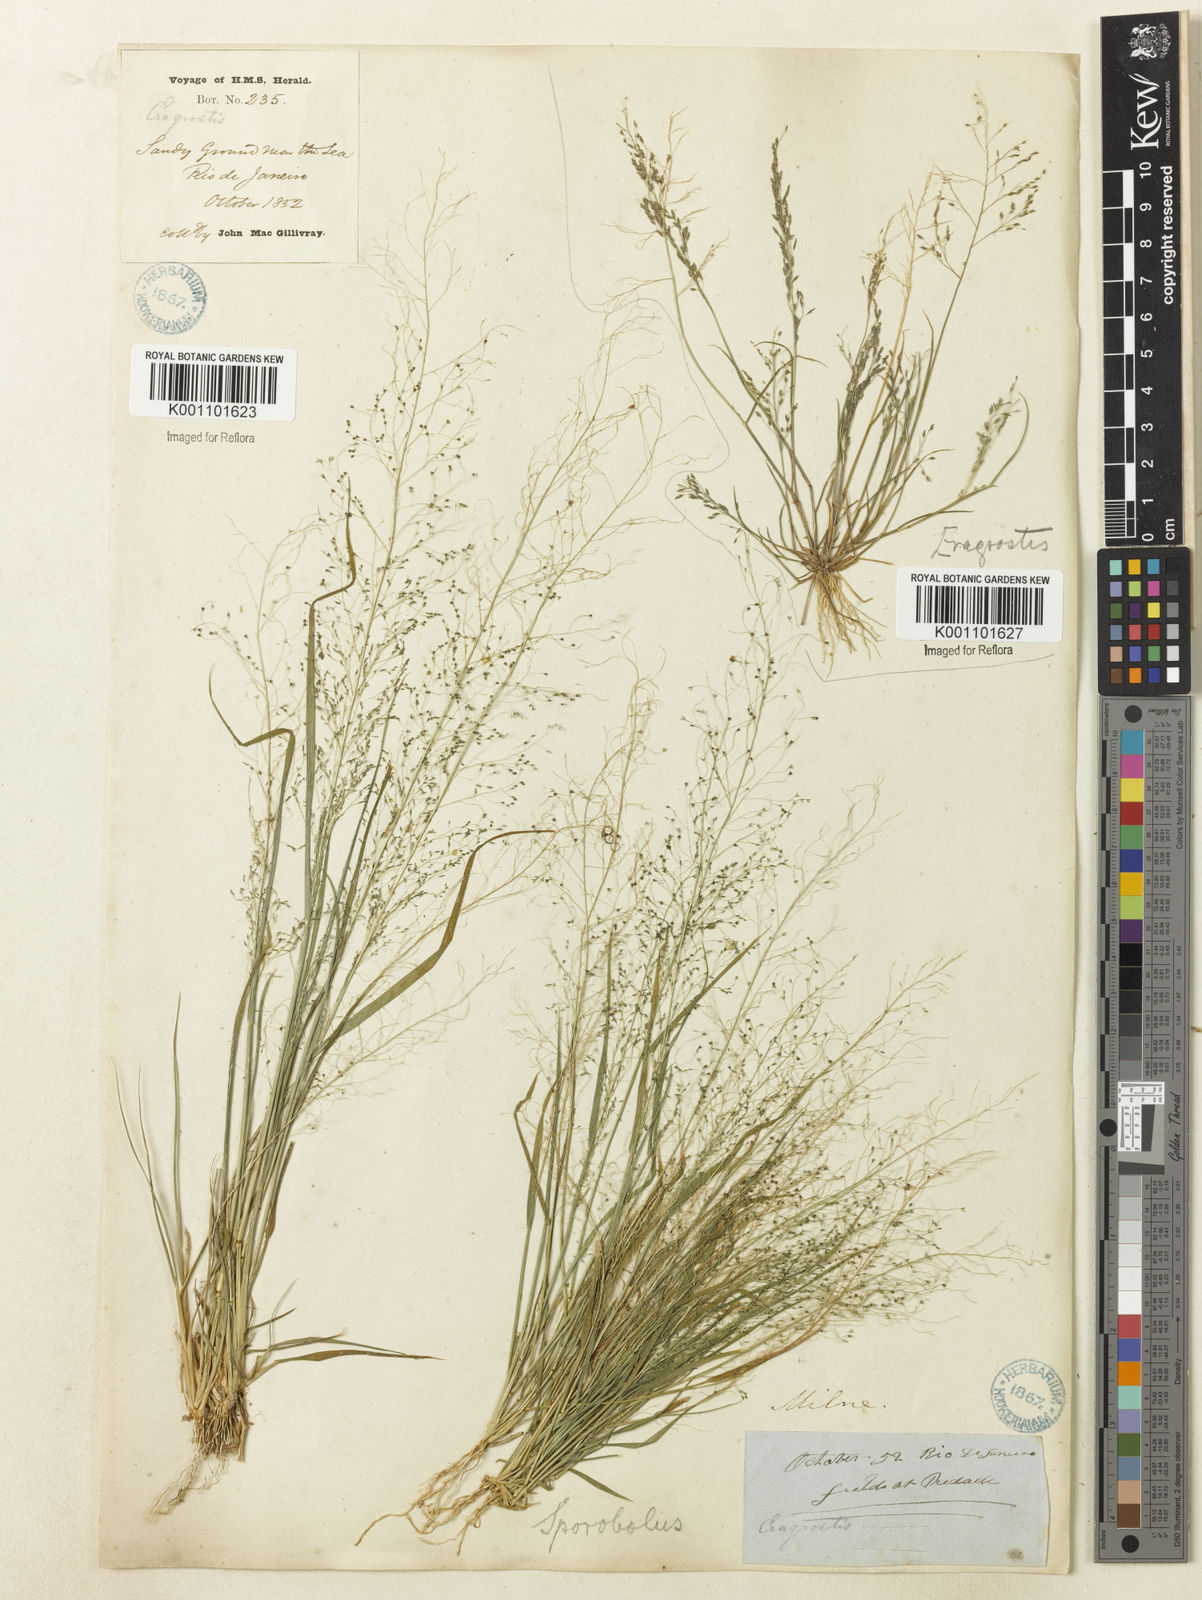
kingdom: Plantae
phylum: Tracheophyta
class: Liliopsida
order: Poales
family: Poaceae
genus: Sporobolus
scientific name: Sporobolus tenuissimus
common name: Tropical dropseed
